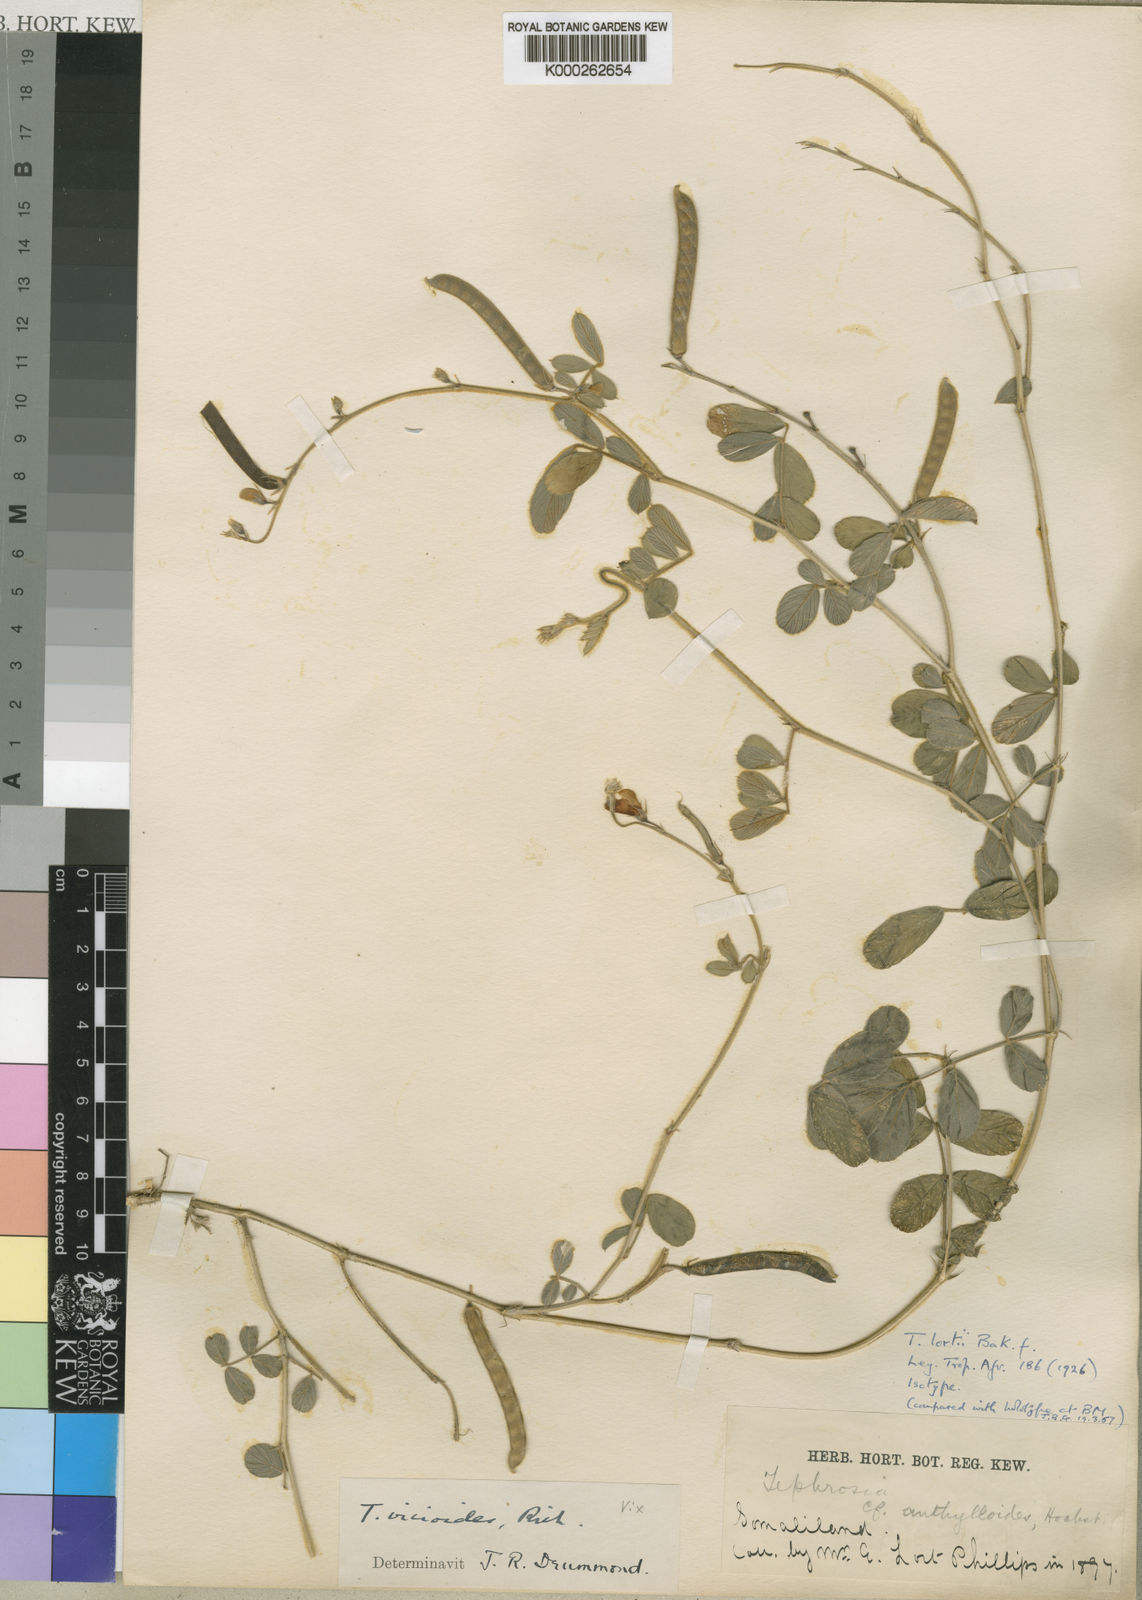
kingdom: Plantae
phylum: Tracheophyta
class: Magnoliopsida
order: Fabales
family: Fabaceae
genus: Tephrosia
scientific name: Tephrosia lortii
